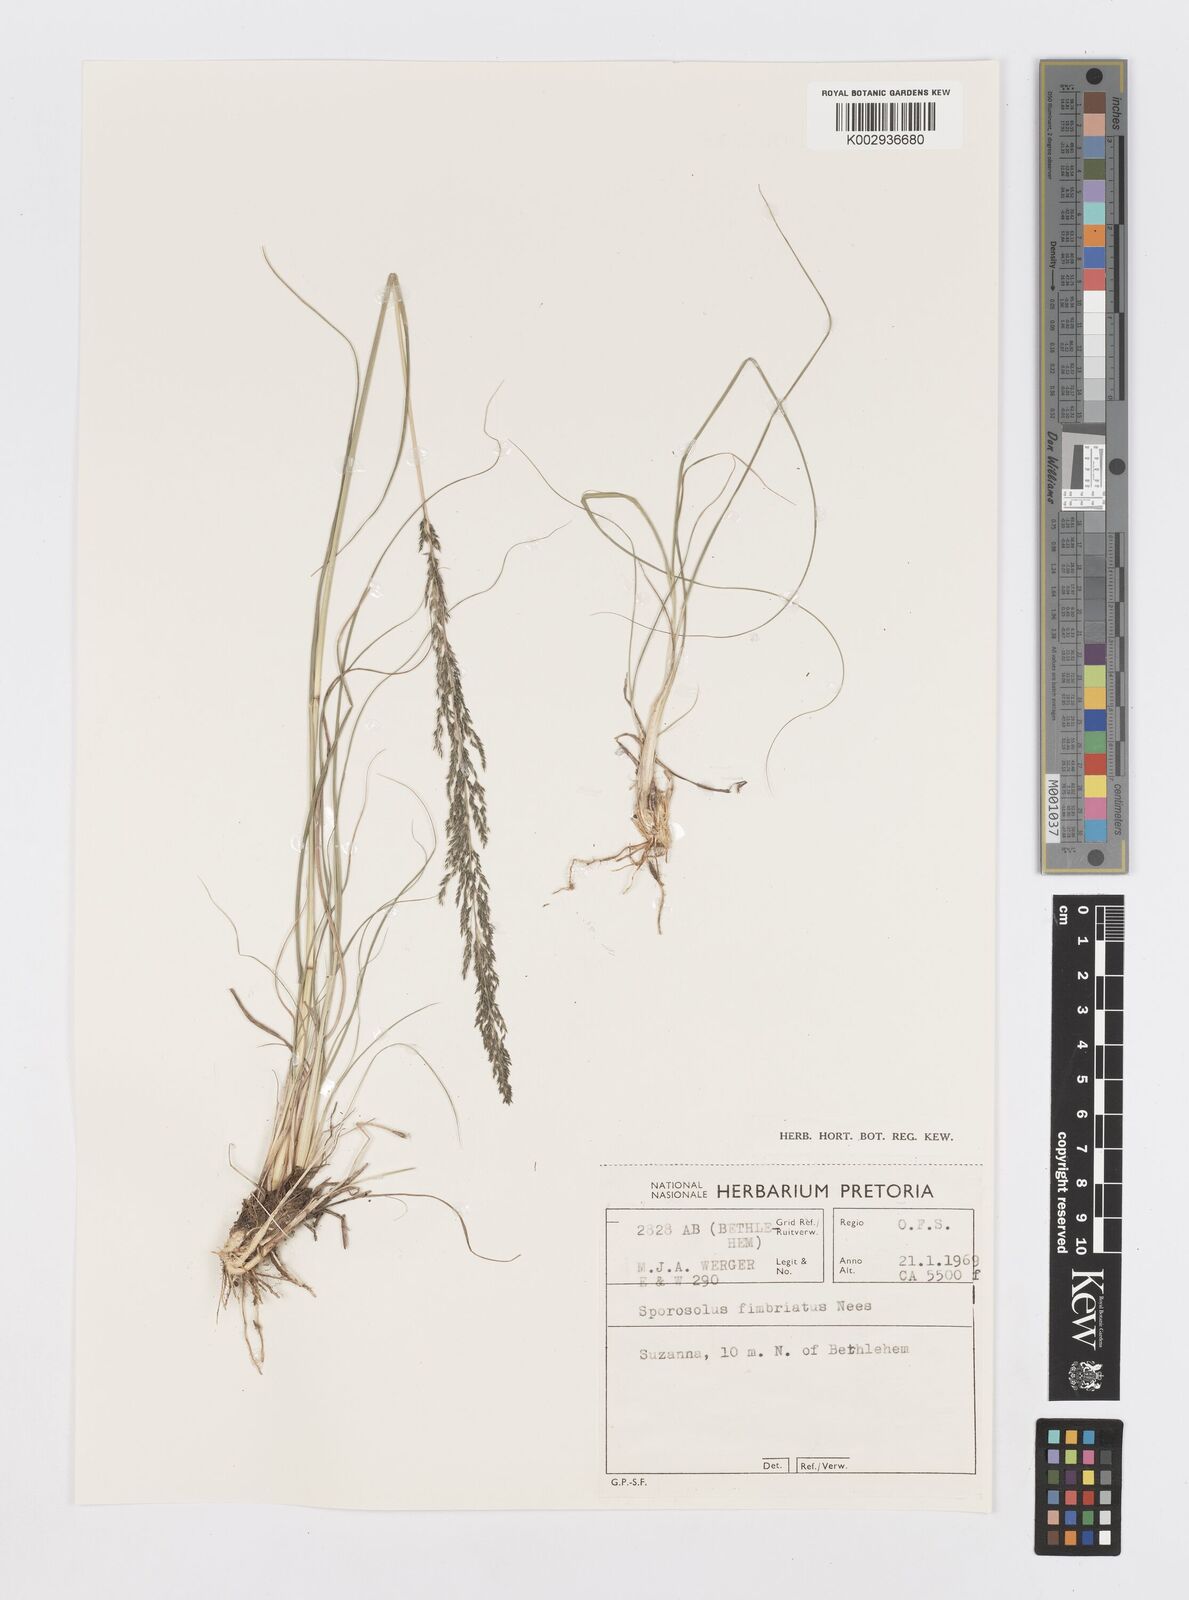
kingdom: Plantae
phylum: Tracheophyta
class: Liliopsida
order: Poales
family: Poaceae
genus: Sporobolus
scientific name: Sporobolus fimbriatus
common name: Fringed dropseed
